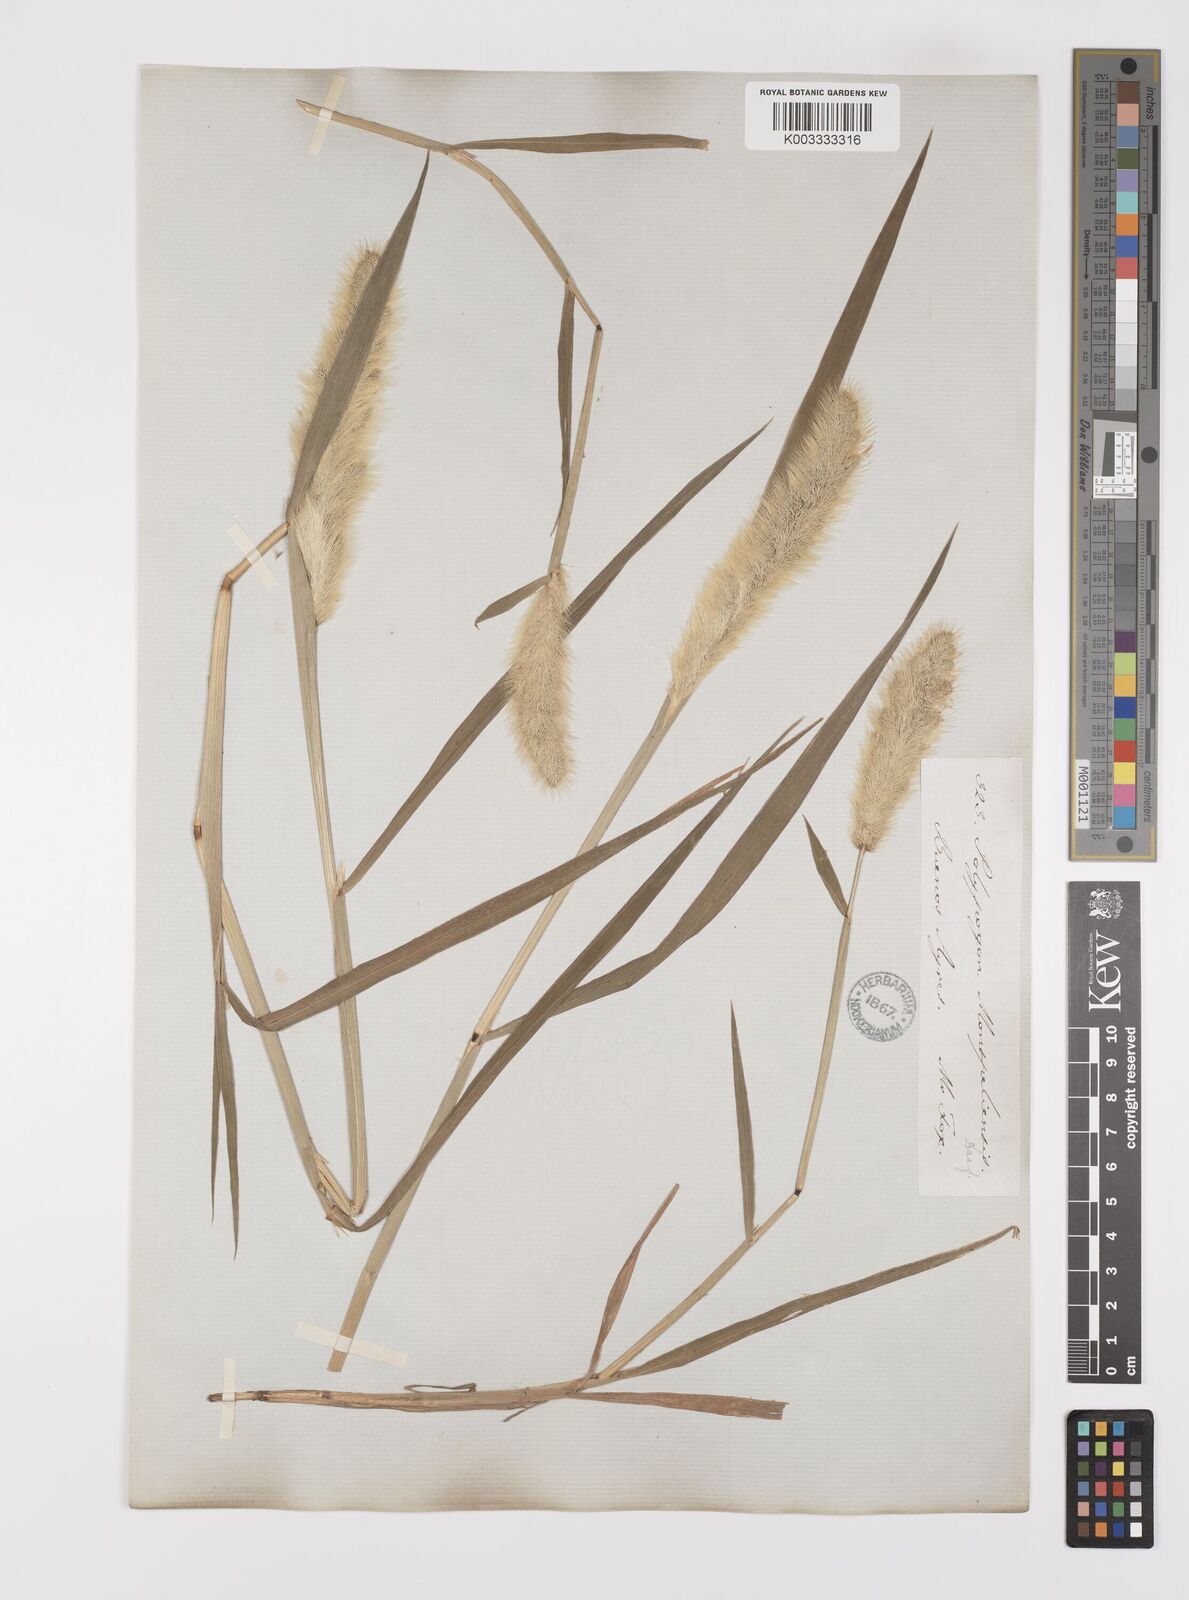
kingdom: Plantae
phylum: Tracheophyta
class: Liliopsida
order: Poales
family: Poaceae
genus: Polypogon
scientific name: Polypogon monspeliensis
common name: Annual rabbitsfoot grass
